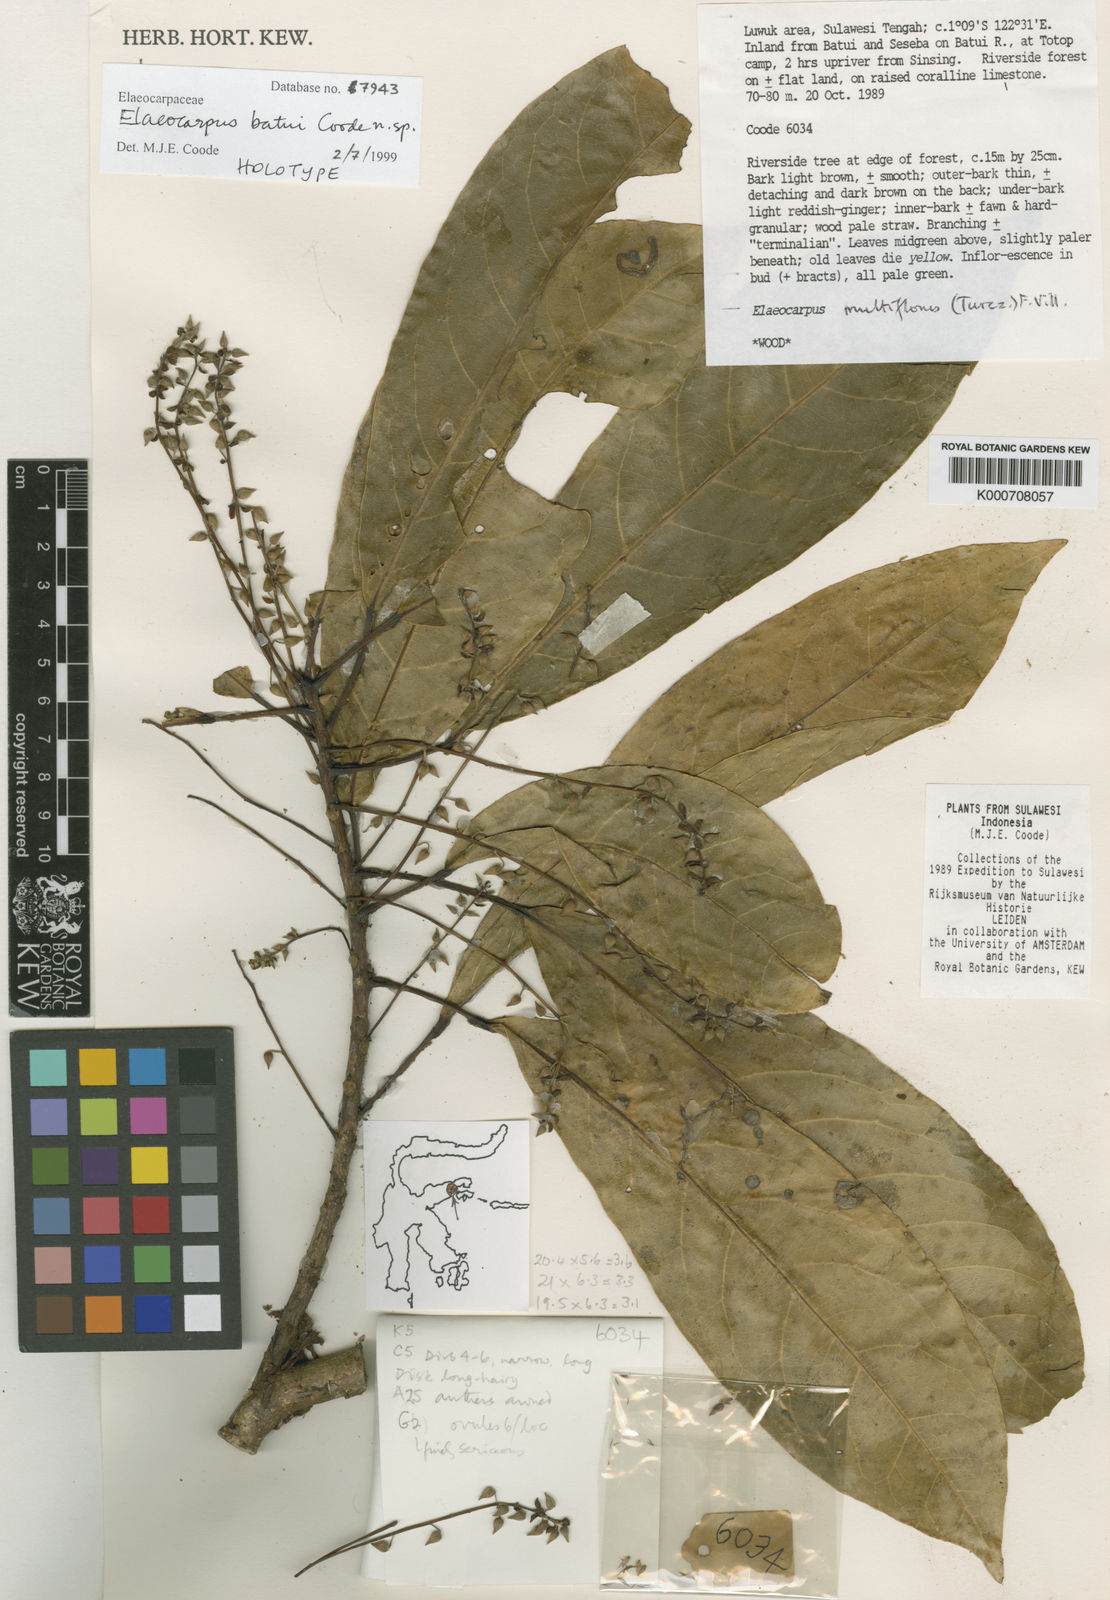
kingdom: Plantae
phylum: Tracheophyta
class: Magnoliopsida
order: Oxalidales
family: Elaeocarpaceae
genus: Elaeocarpus
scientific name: Elaeocarpus batui
